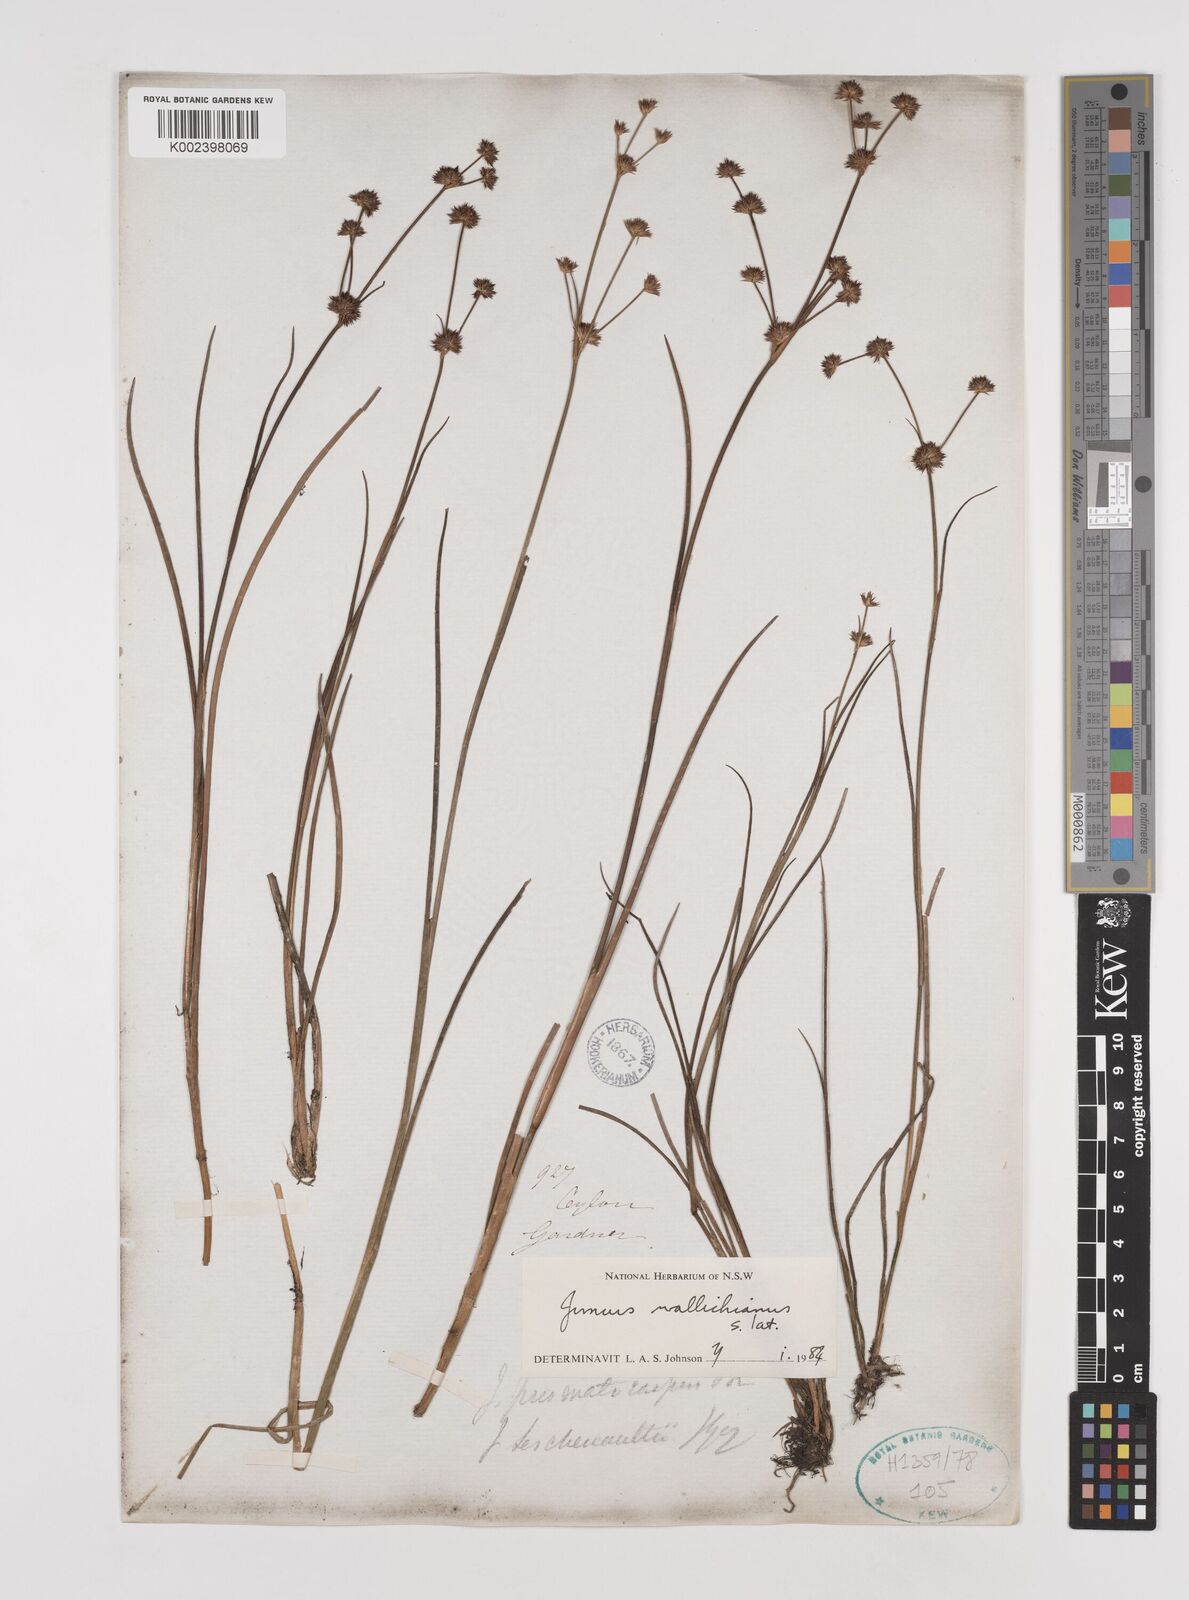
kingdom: Plantae
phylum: Tracheophyta
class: Liliopsida
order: Poales
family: Juncaceae
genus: Juncus
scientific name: Juncus wallichianus
